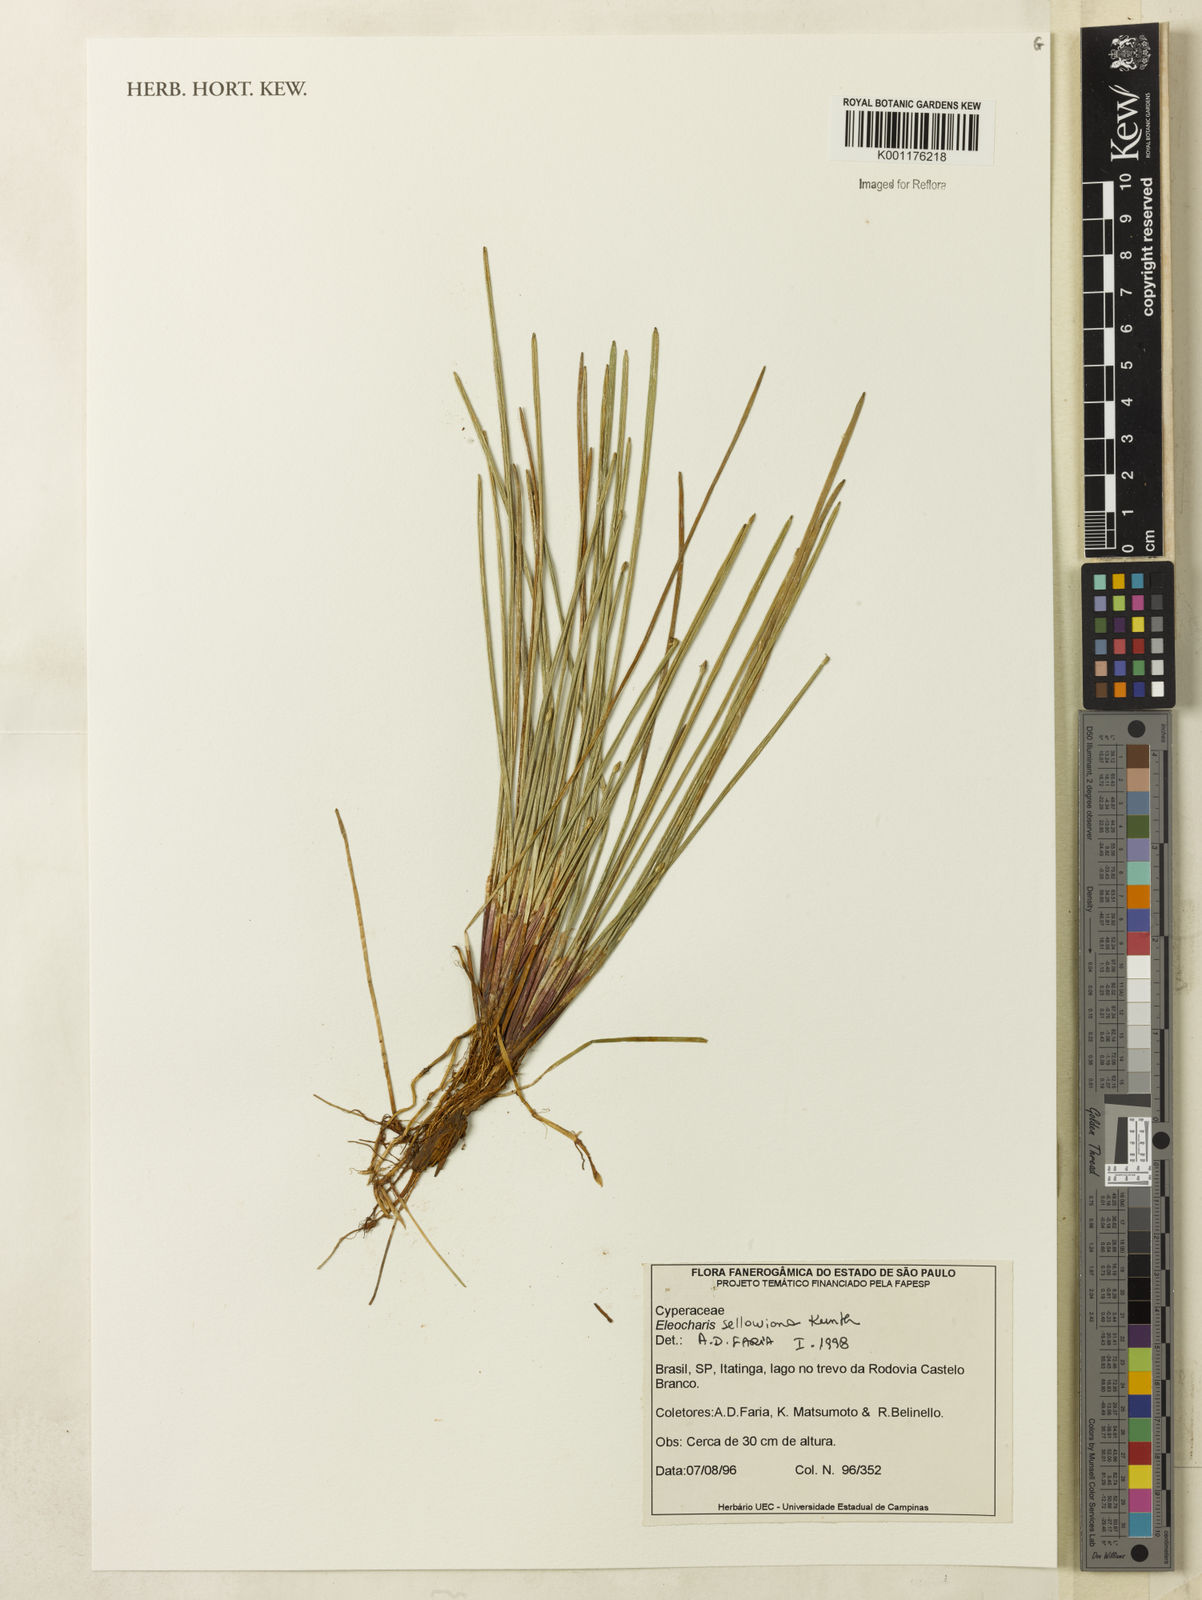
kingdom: Plantae
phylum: Tracheophyta
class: Liliopsida
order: Poales
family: Cyperaceae
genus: Eleocharis
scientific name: Eleocharis sellowiana
